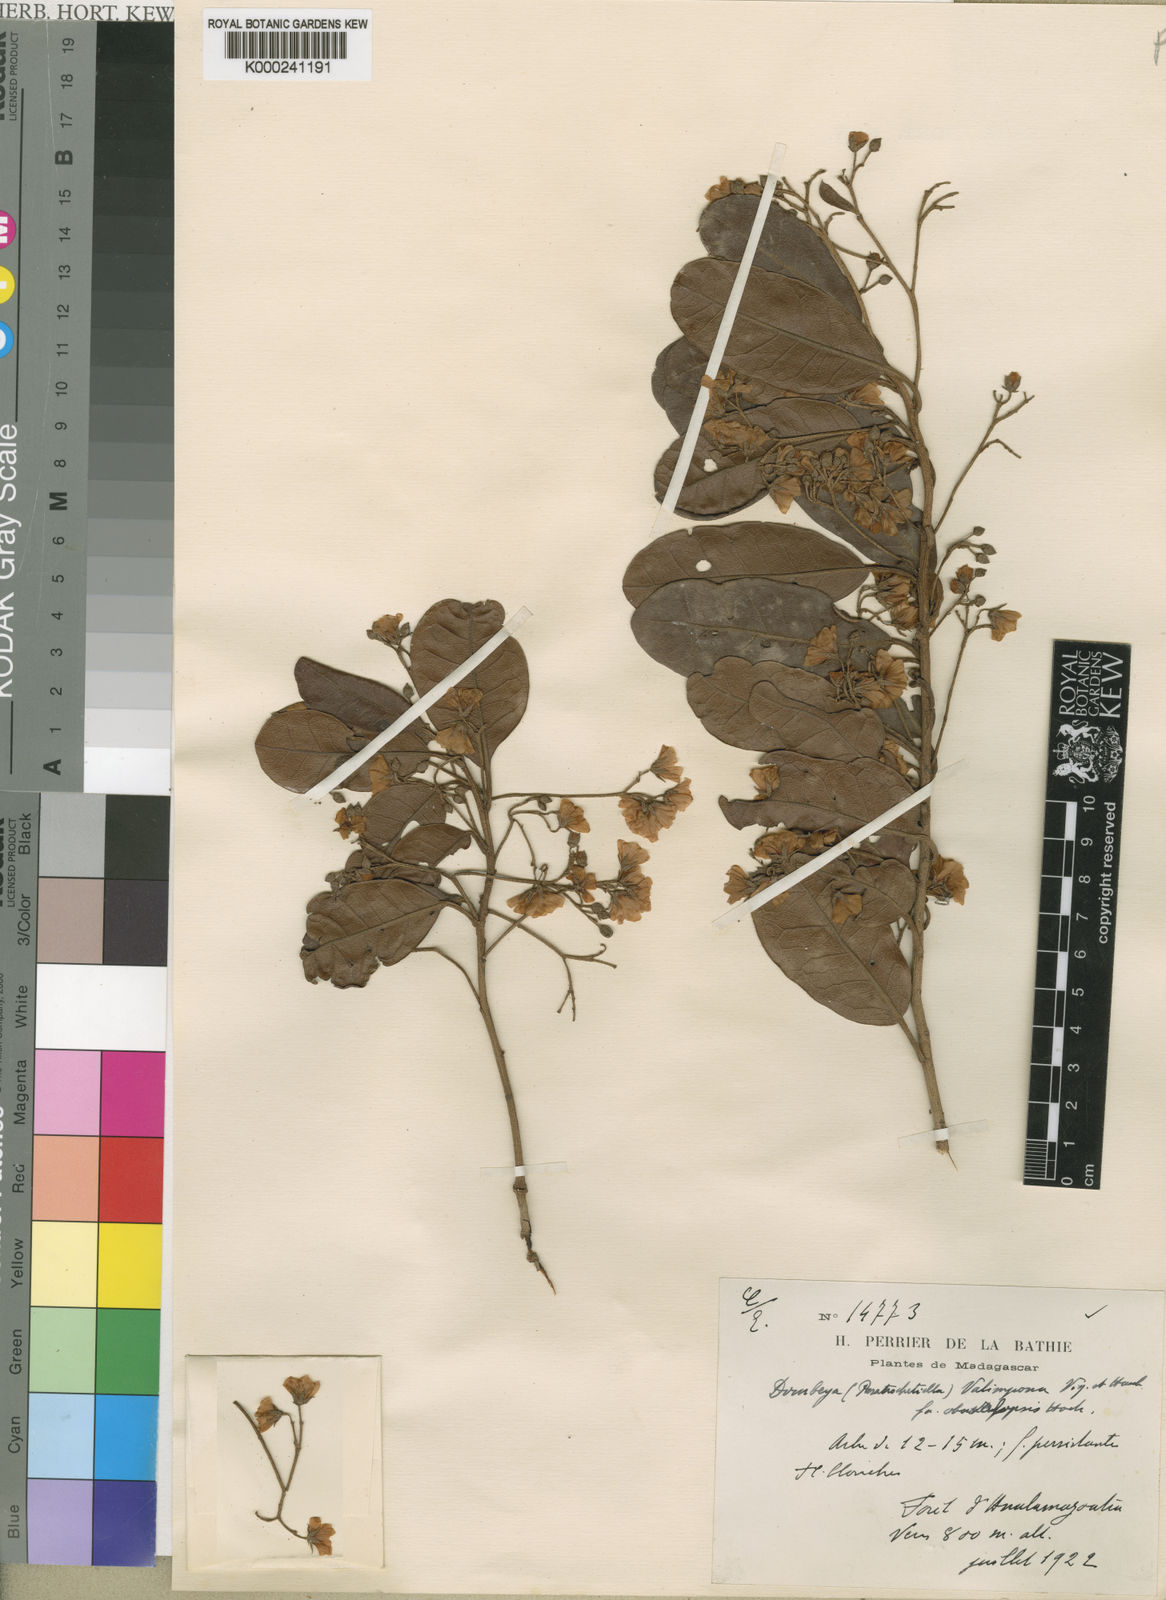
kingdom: Plantae
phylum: Tracheophyta
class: Magnoliopsida
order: Malvales
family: Malvaceae
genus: Dombeya
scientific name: Dombeya laurifolia
